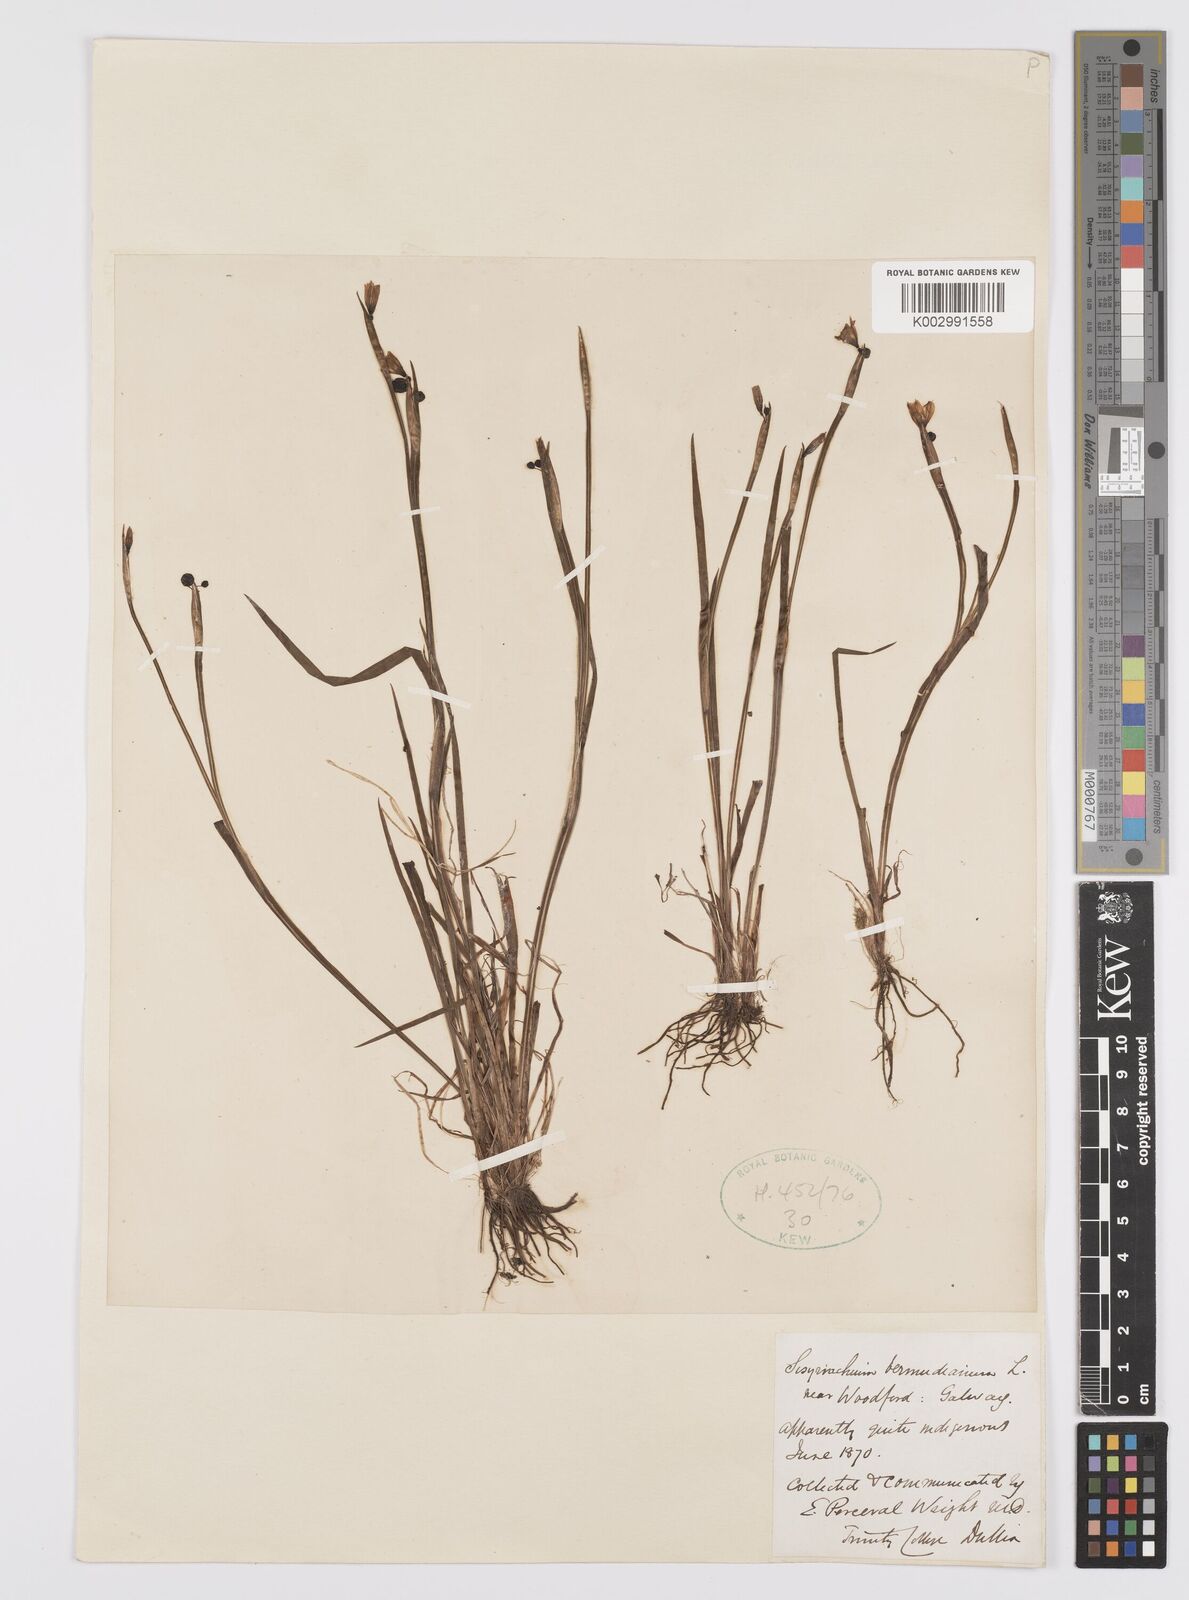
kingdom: Plantae
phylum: Tracheophyta
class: Liliopsida
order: Asparagales
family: Iridaceae
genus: Sisyrinchium
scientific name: Sisyrinchium angustifolium
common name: Narrow-leaf blue-eyed-grass
